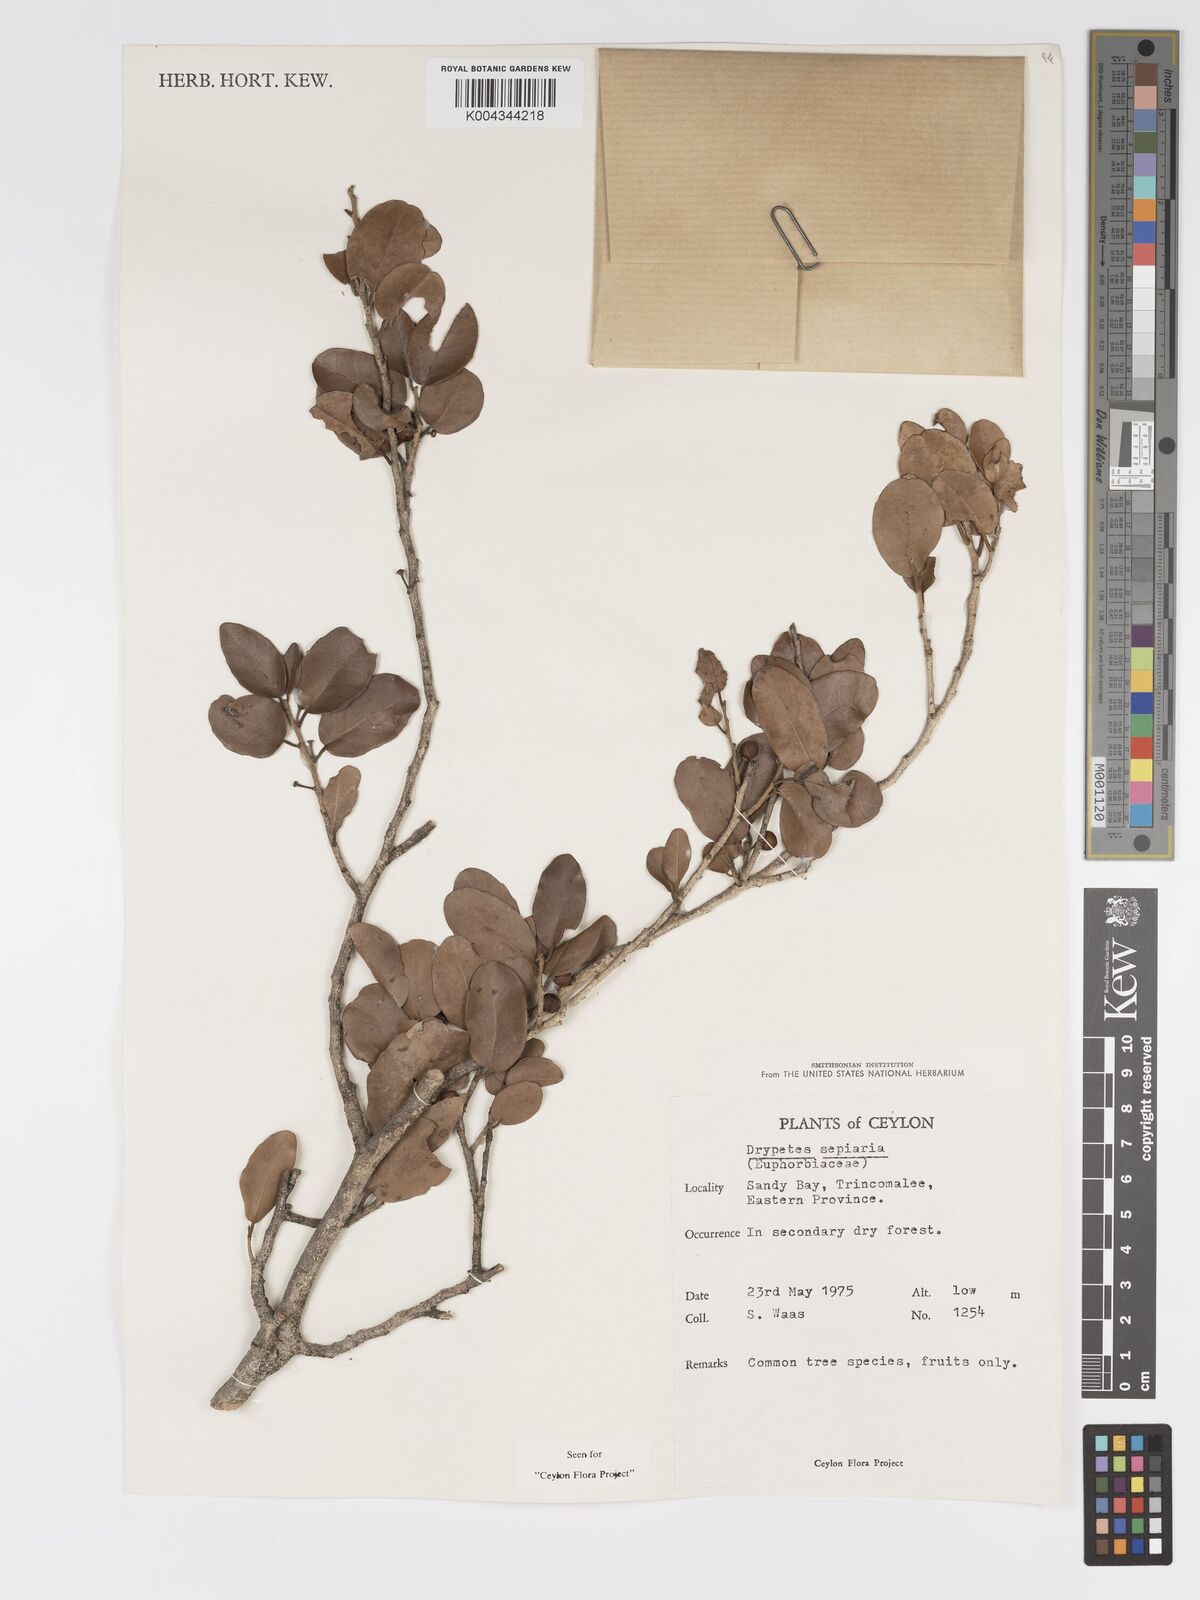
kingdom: Plantae
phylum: Tracheophyta
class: Magnoliopsida
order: Malpighiales
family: Putranjivaceae
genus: Drypetes
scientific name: Drypetes sepiaria
